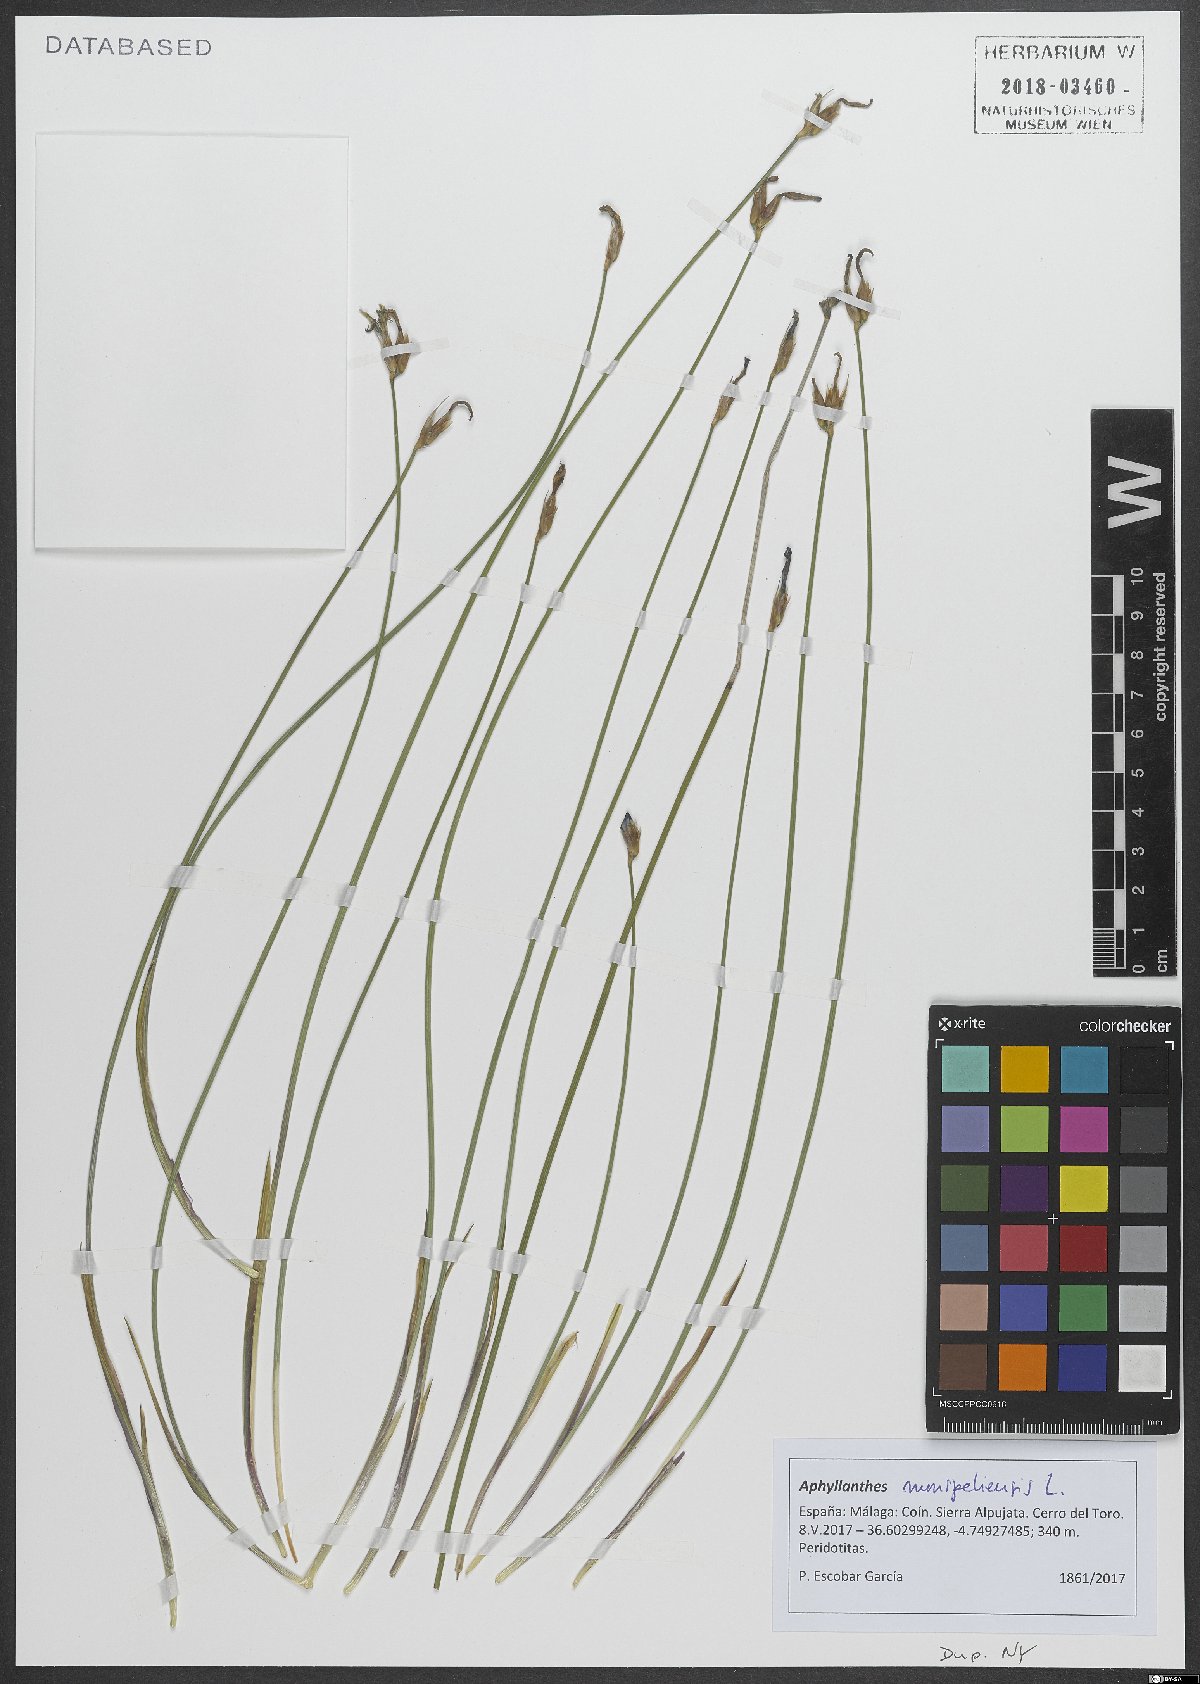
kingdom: Plantae
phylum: Tracheophyta
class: Liliopsida
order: Asparagales
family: Asparagaceae
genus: Aphyllanthes
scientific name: Aphyllanthes monspeliensis
